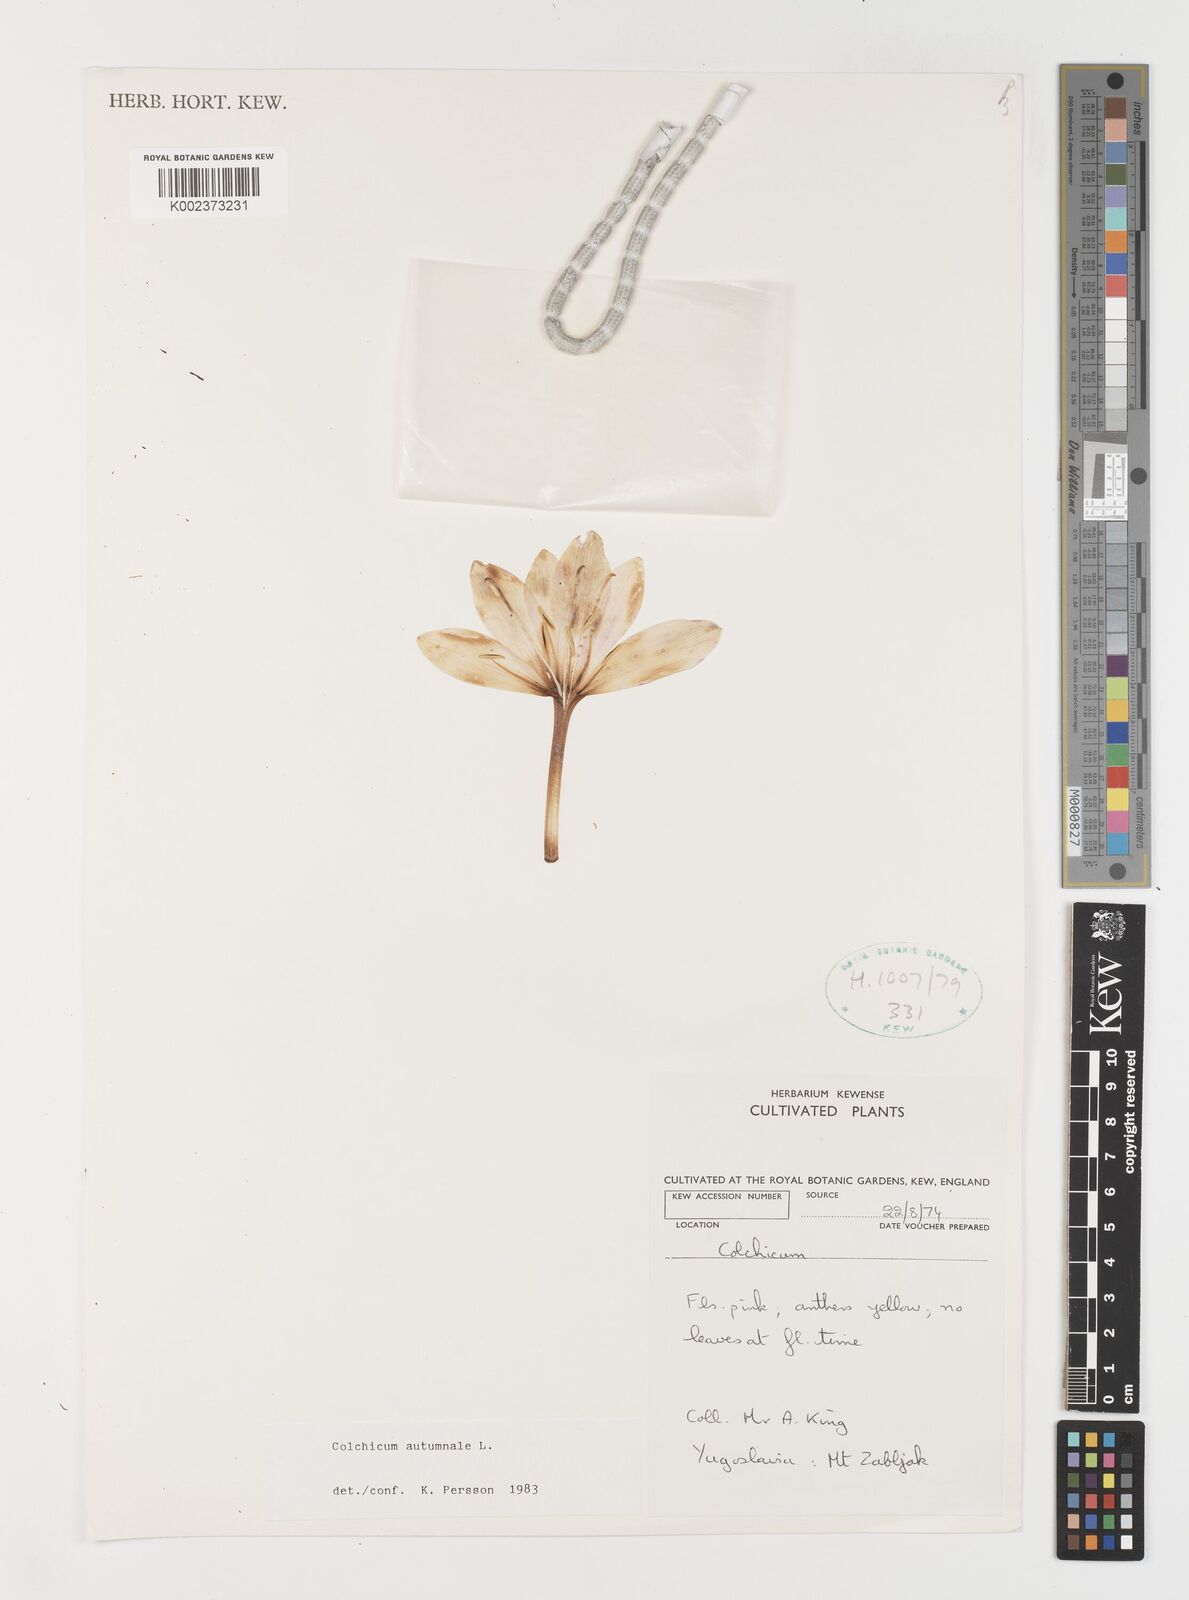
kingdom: Plantae
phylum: Tracheophyta
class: Liliopsida
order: Liliales
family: Colchicaceae
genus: Colchicum
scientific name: Colchicum autumnale
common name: Autumn crocus
